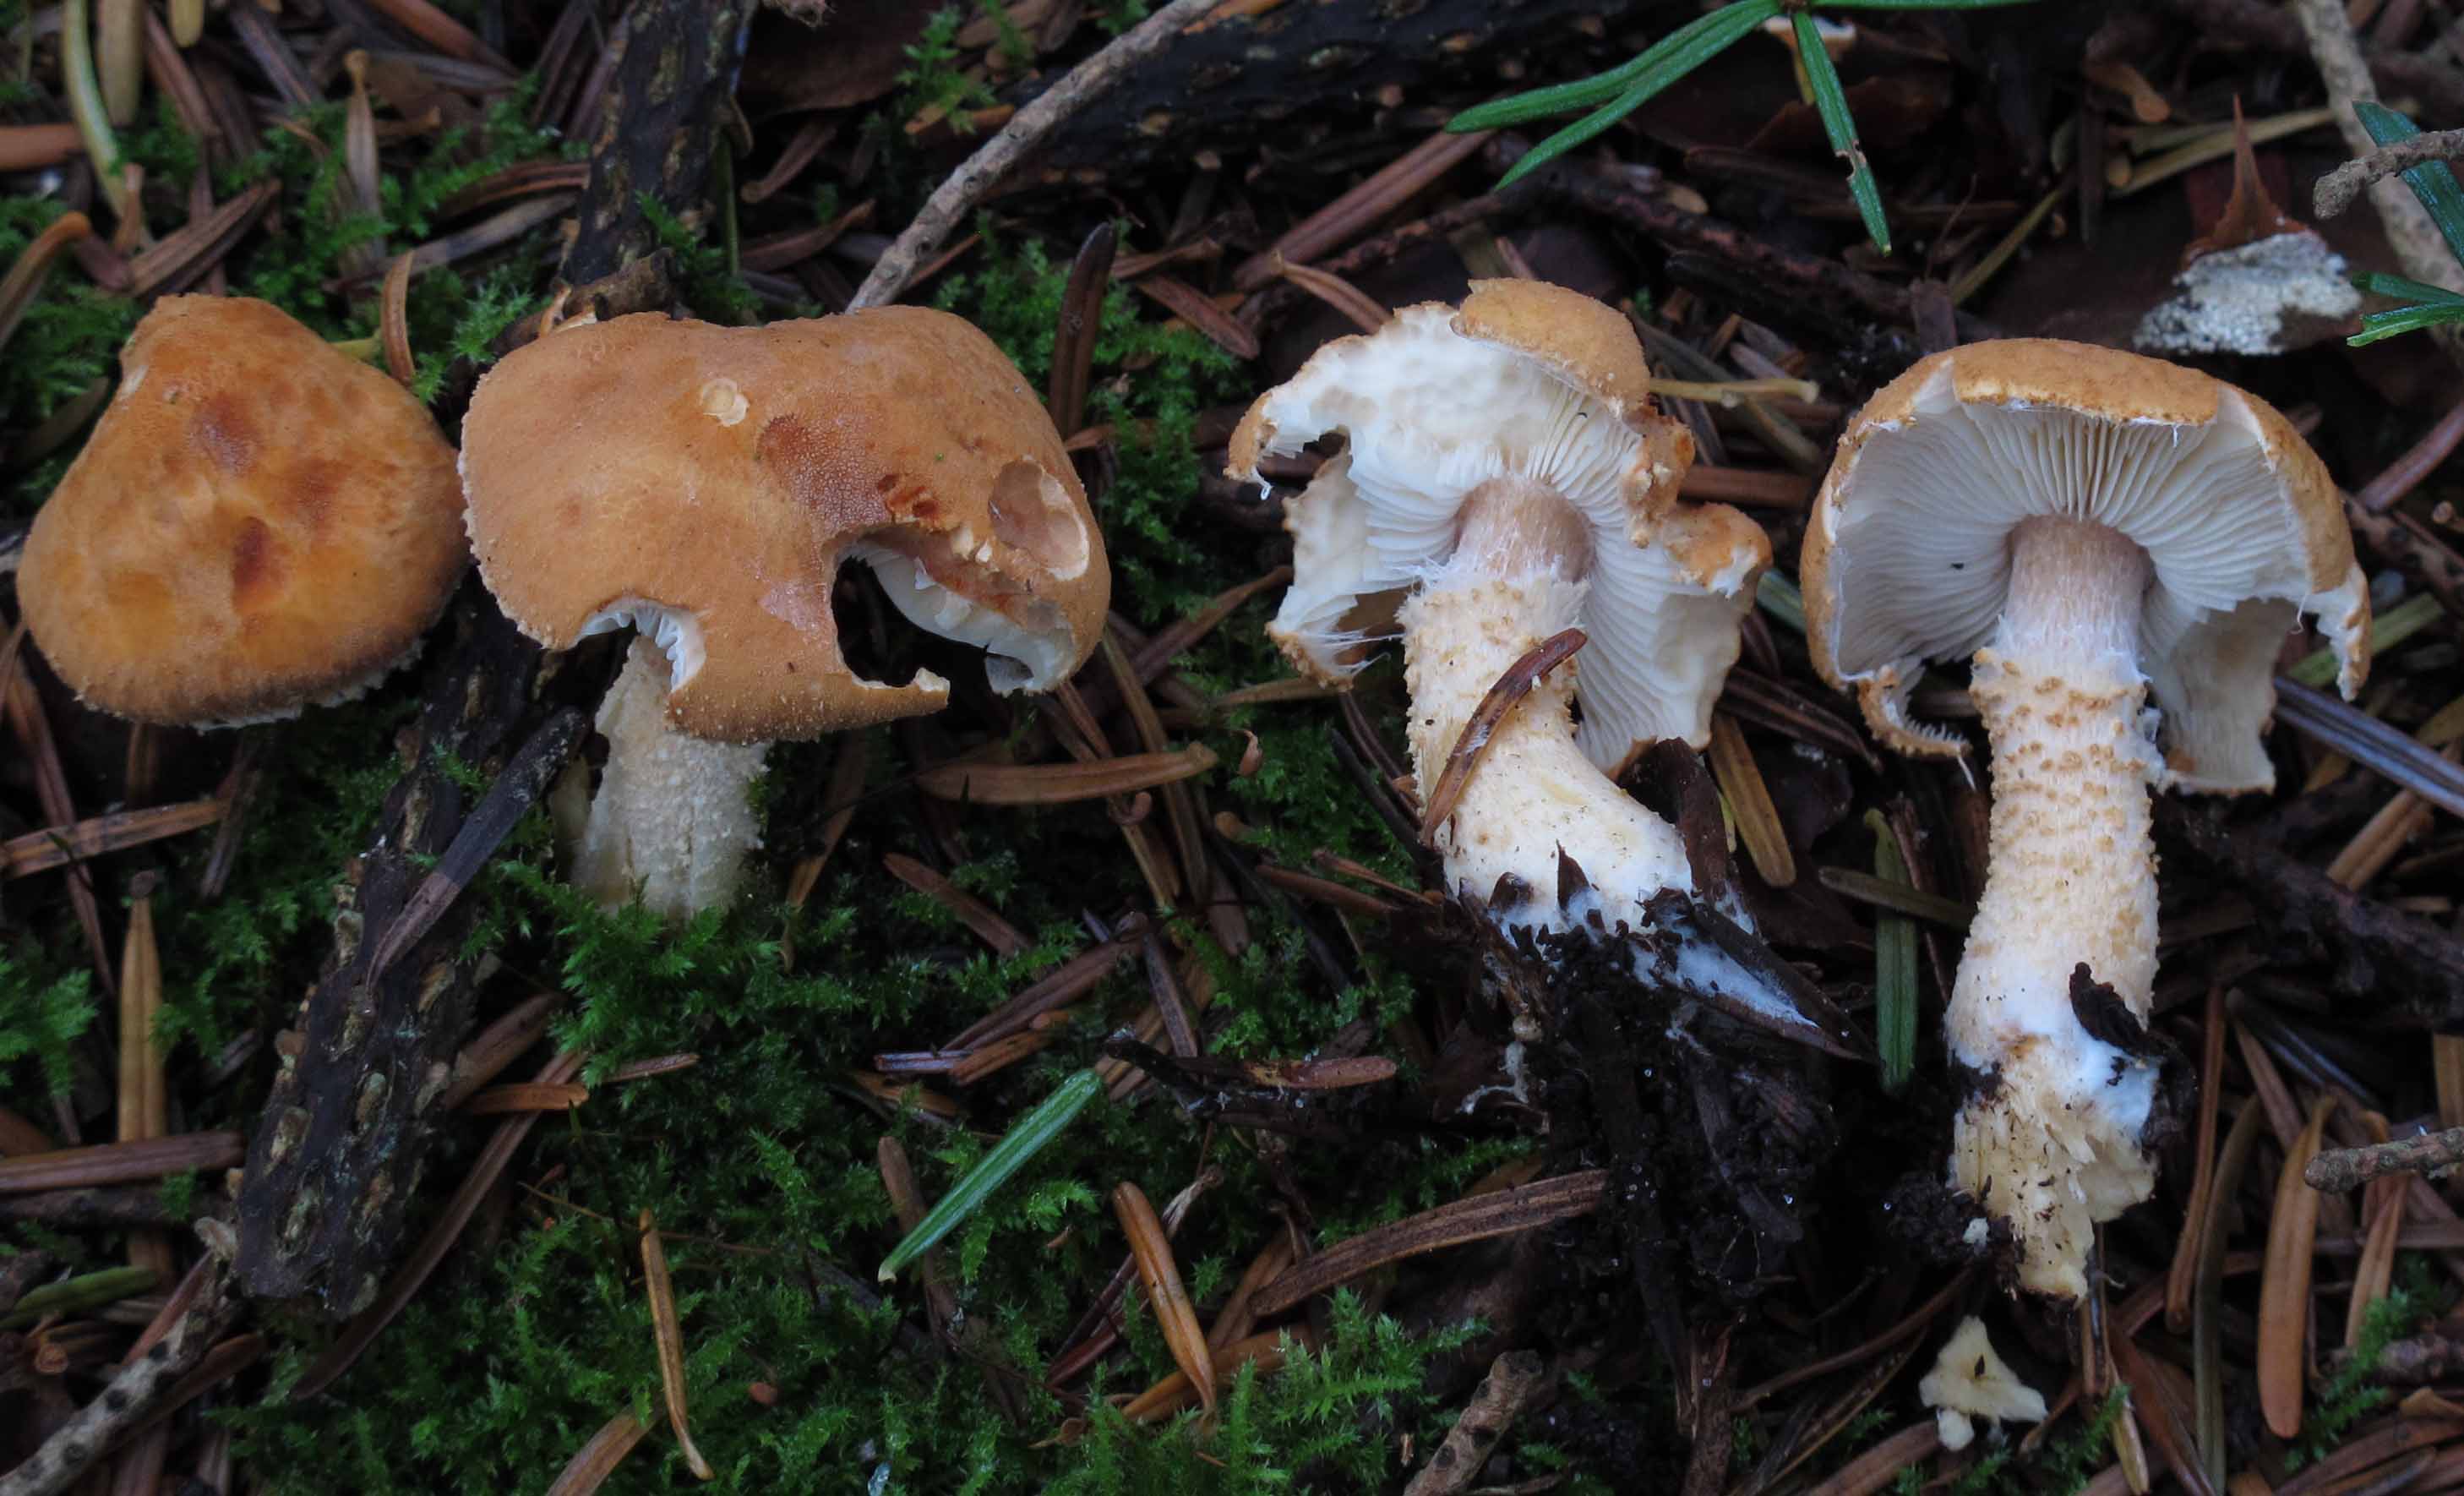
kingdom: Fungi
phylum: Basidiomycota
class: Agaricomycetes
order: Agaricales
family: Agaricaceae
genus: Cystodermella
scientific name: Cystodermella cinnabarina
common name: cinnober-grynhat
